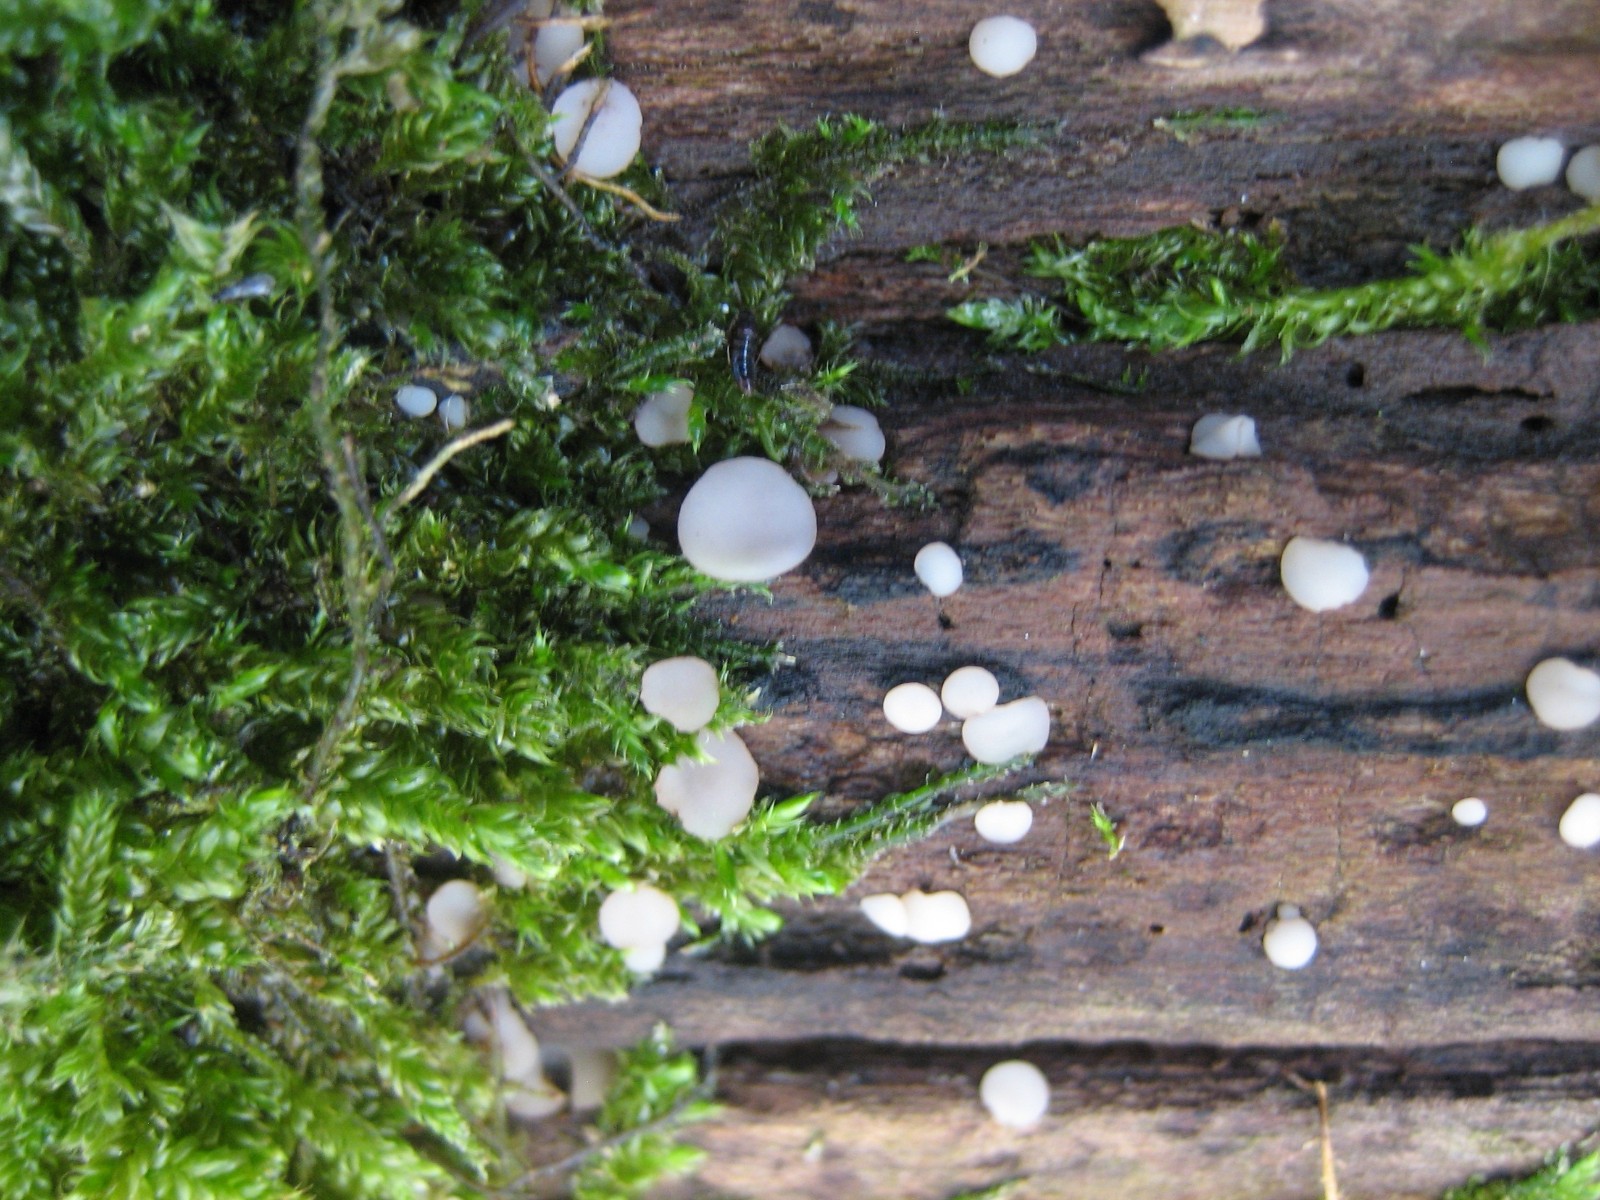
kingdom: Fungi
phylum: Ascomycota
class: Leotiomycetes
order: Helotiales
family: Helotiaceae
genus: Tatraea
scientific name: Tatraea dumbirensis
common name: Beechwood goblet
